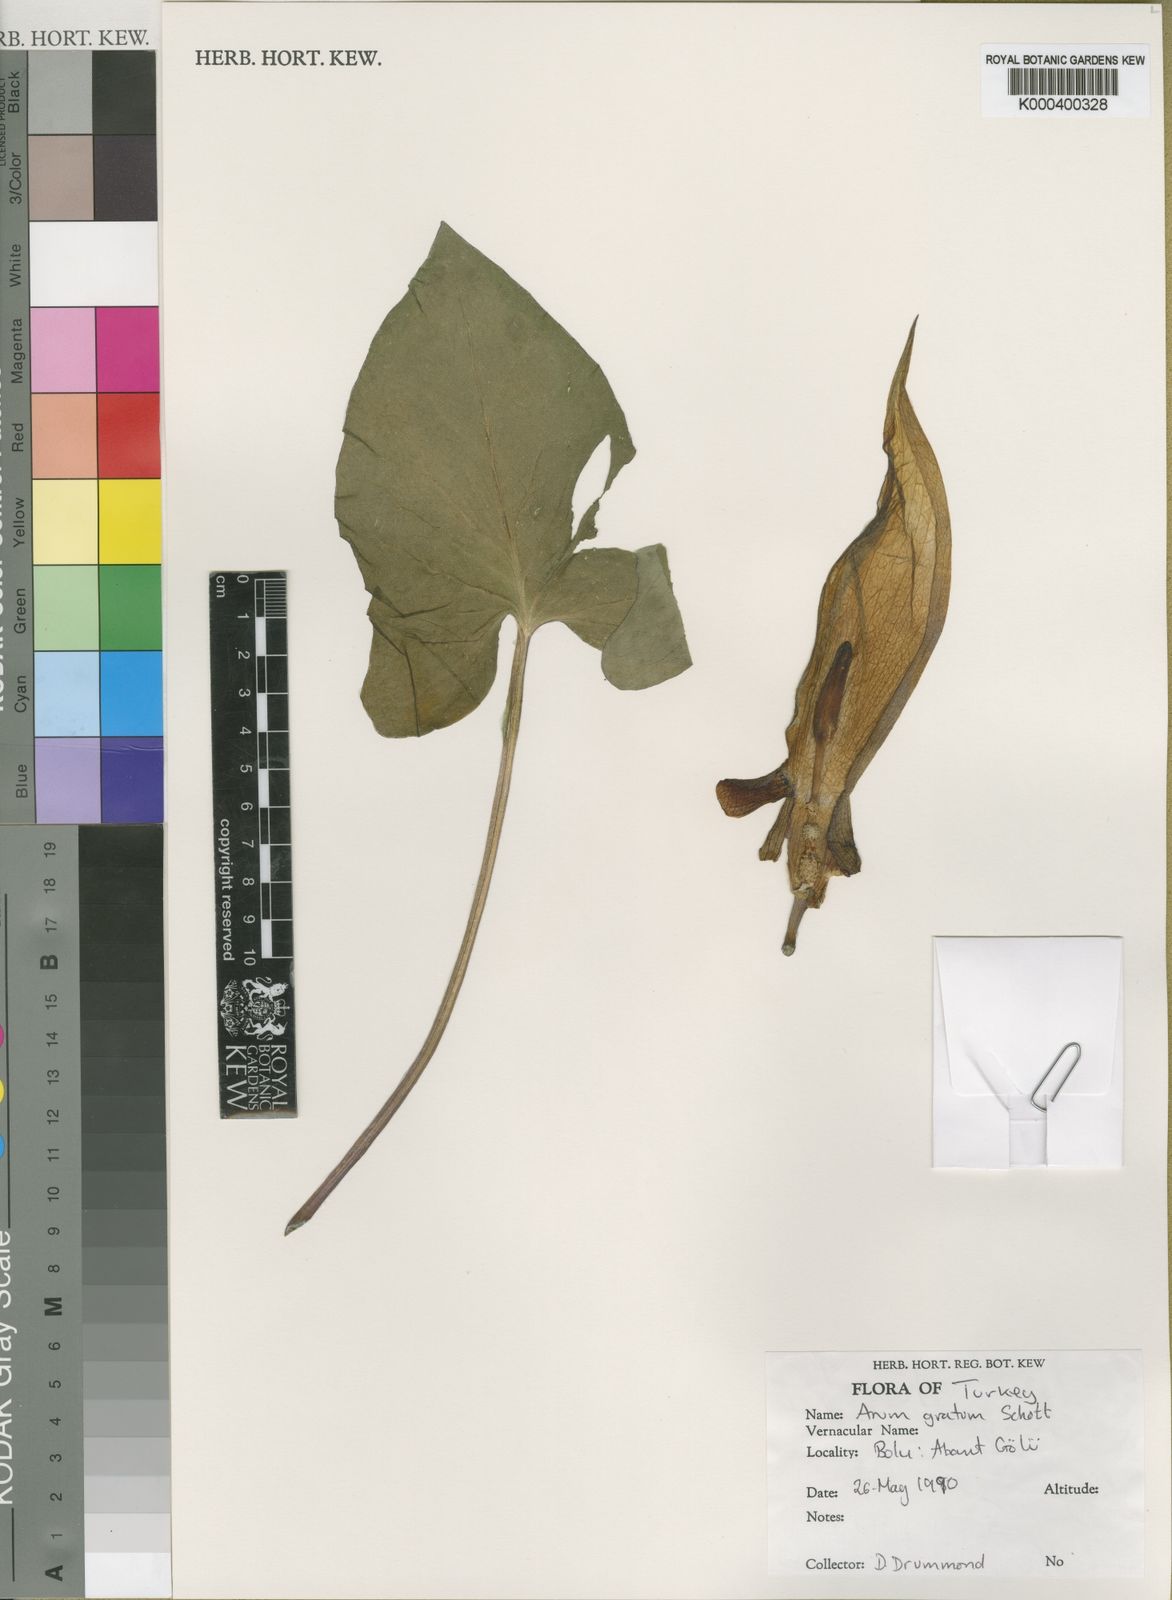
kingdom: Plantae
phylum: Tracheophyta
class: Liliopsida
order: Alismatales
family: Araceae
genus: Arum
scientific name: Arum gratum
